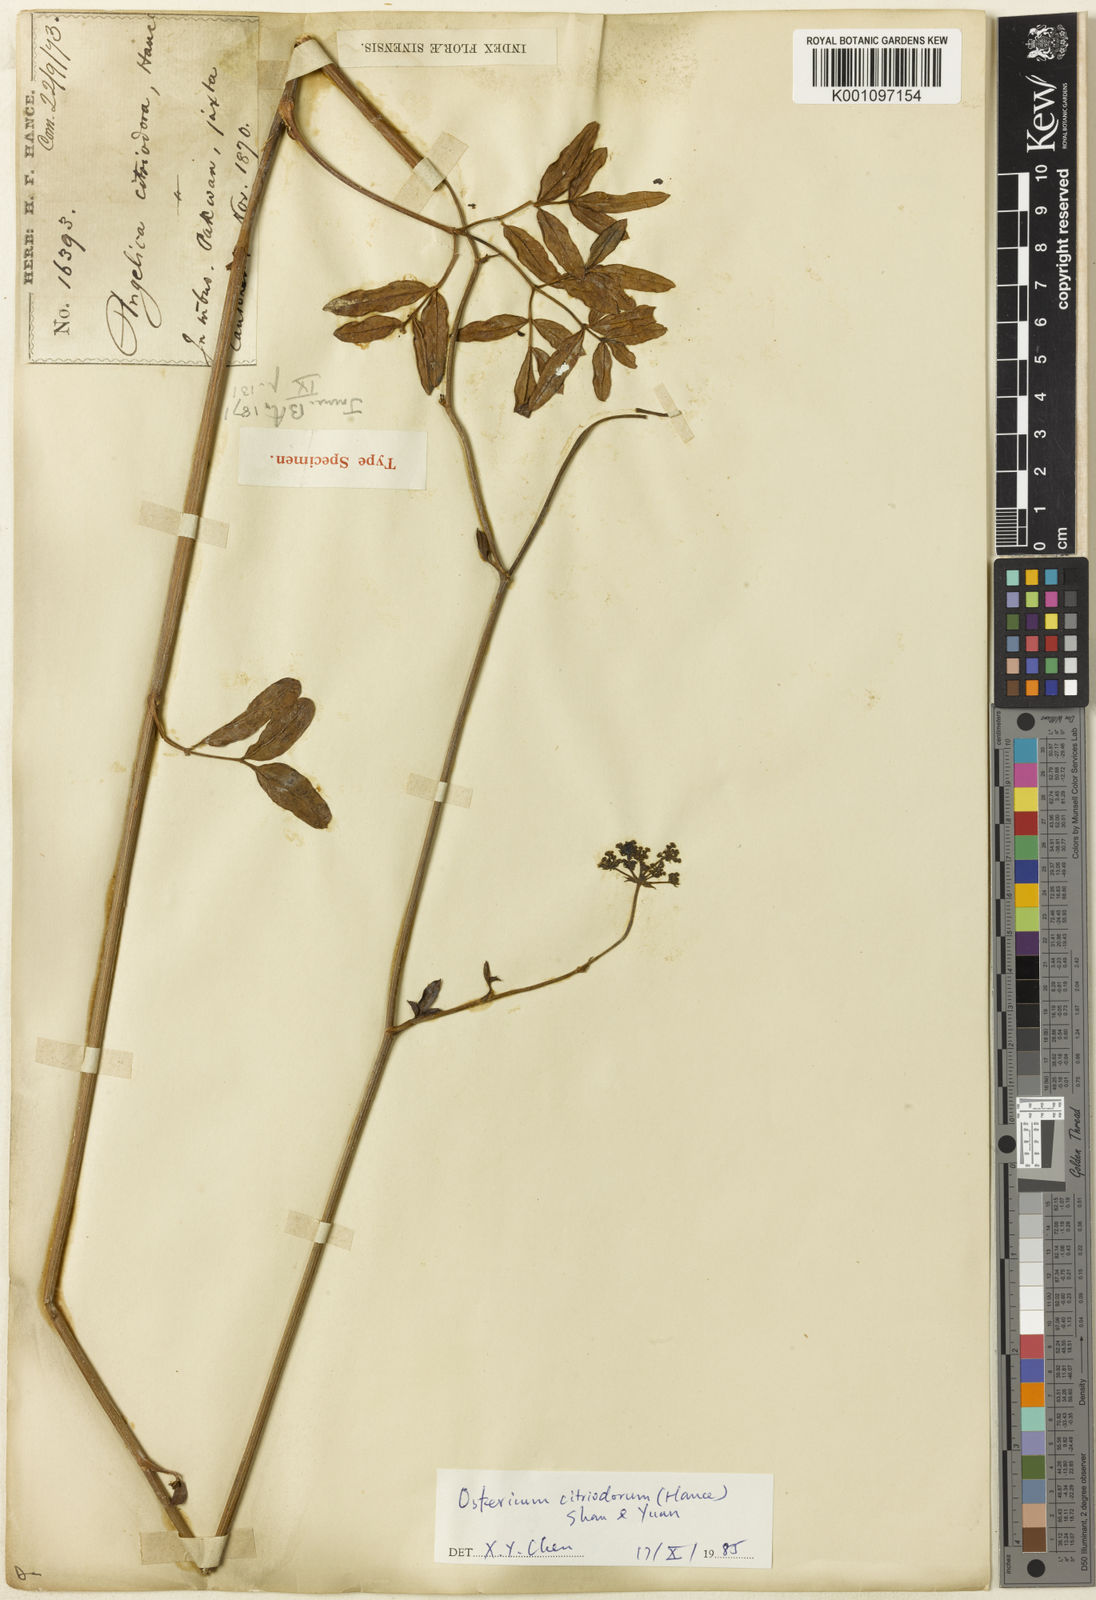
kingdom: Plantae
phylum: Tracheophyta
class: Magnoliopsida
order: Apiales
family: Apiaceae
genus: Ostericum
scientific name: Ostericum citriodorum
